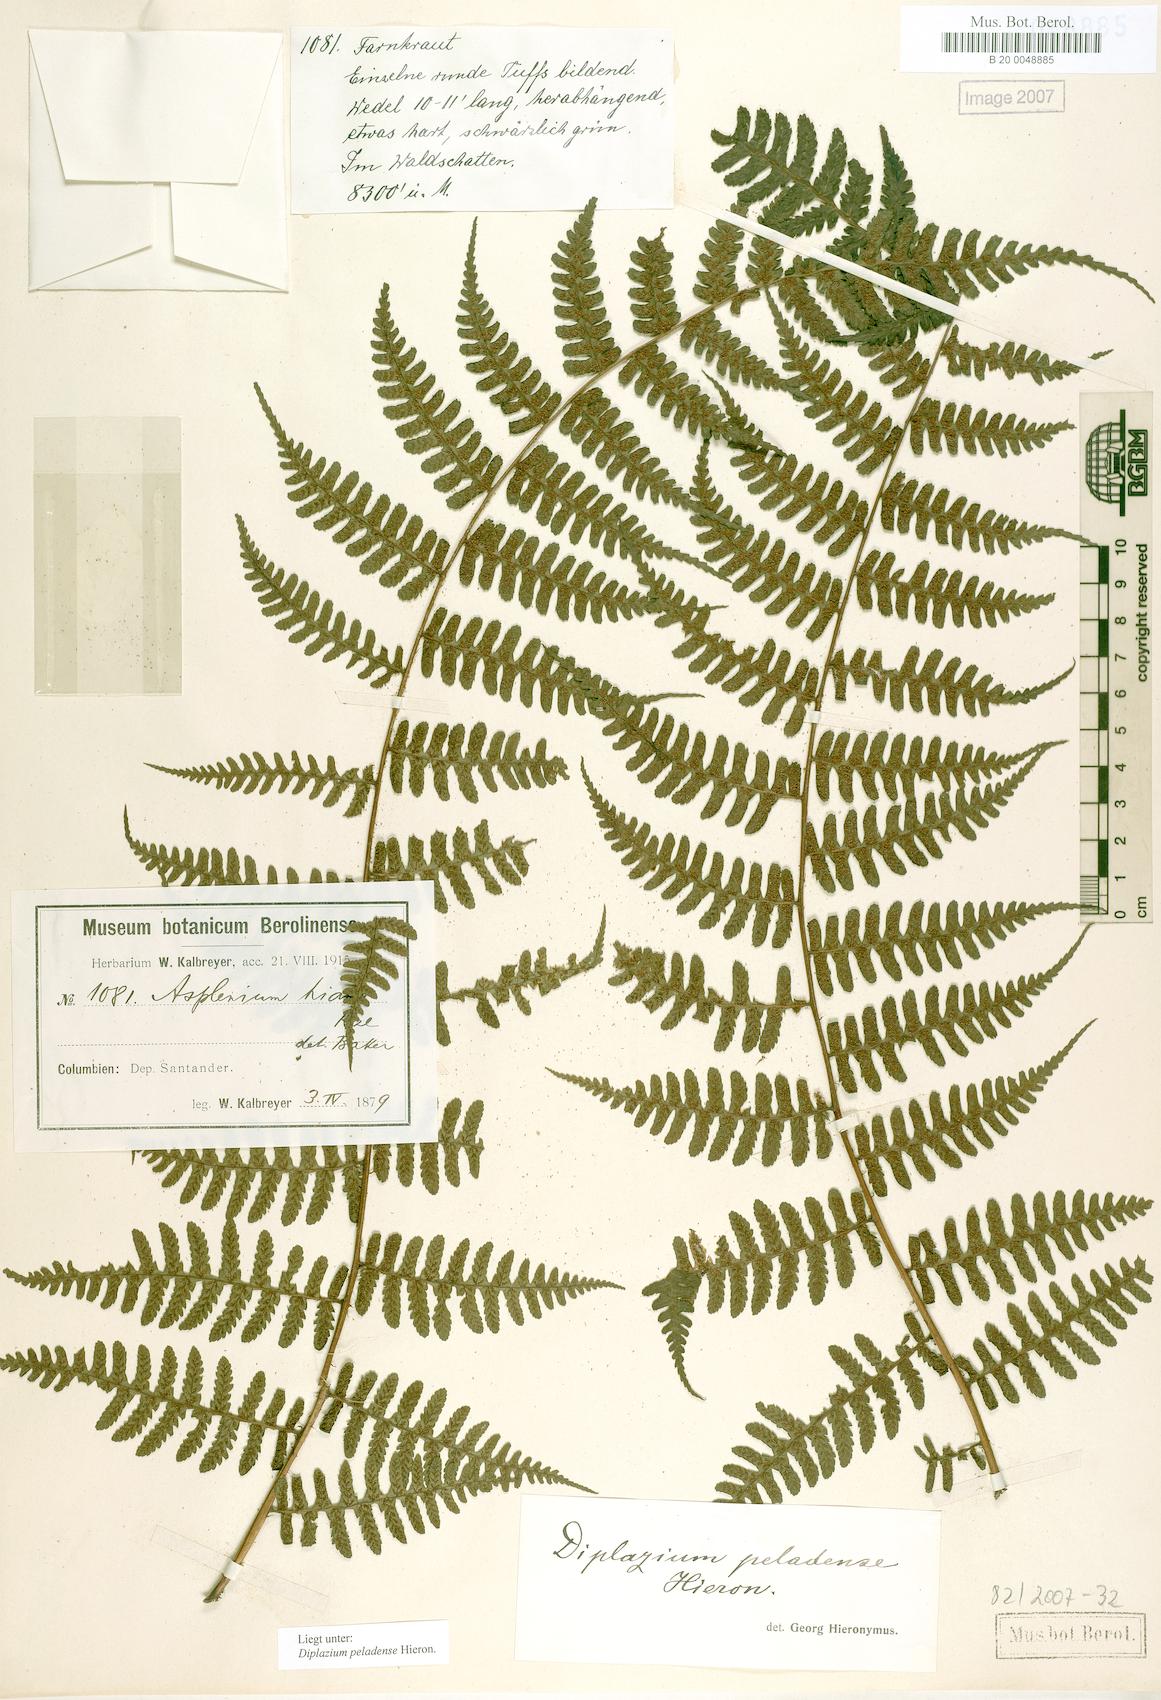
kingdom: Plantae
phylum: Tracheophyta
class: Polypodiopsida
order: Polypodiales
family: Athyriaceae
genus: Diplazium
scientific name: Diplazium peladense
